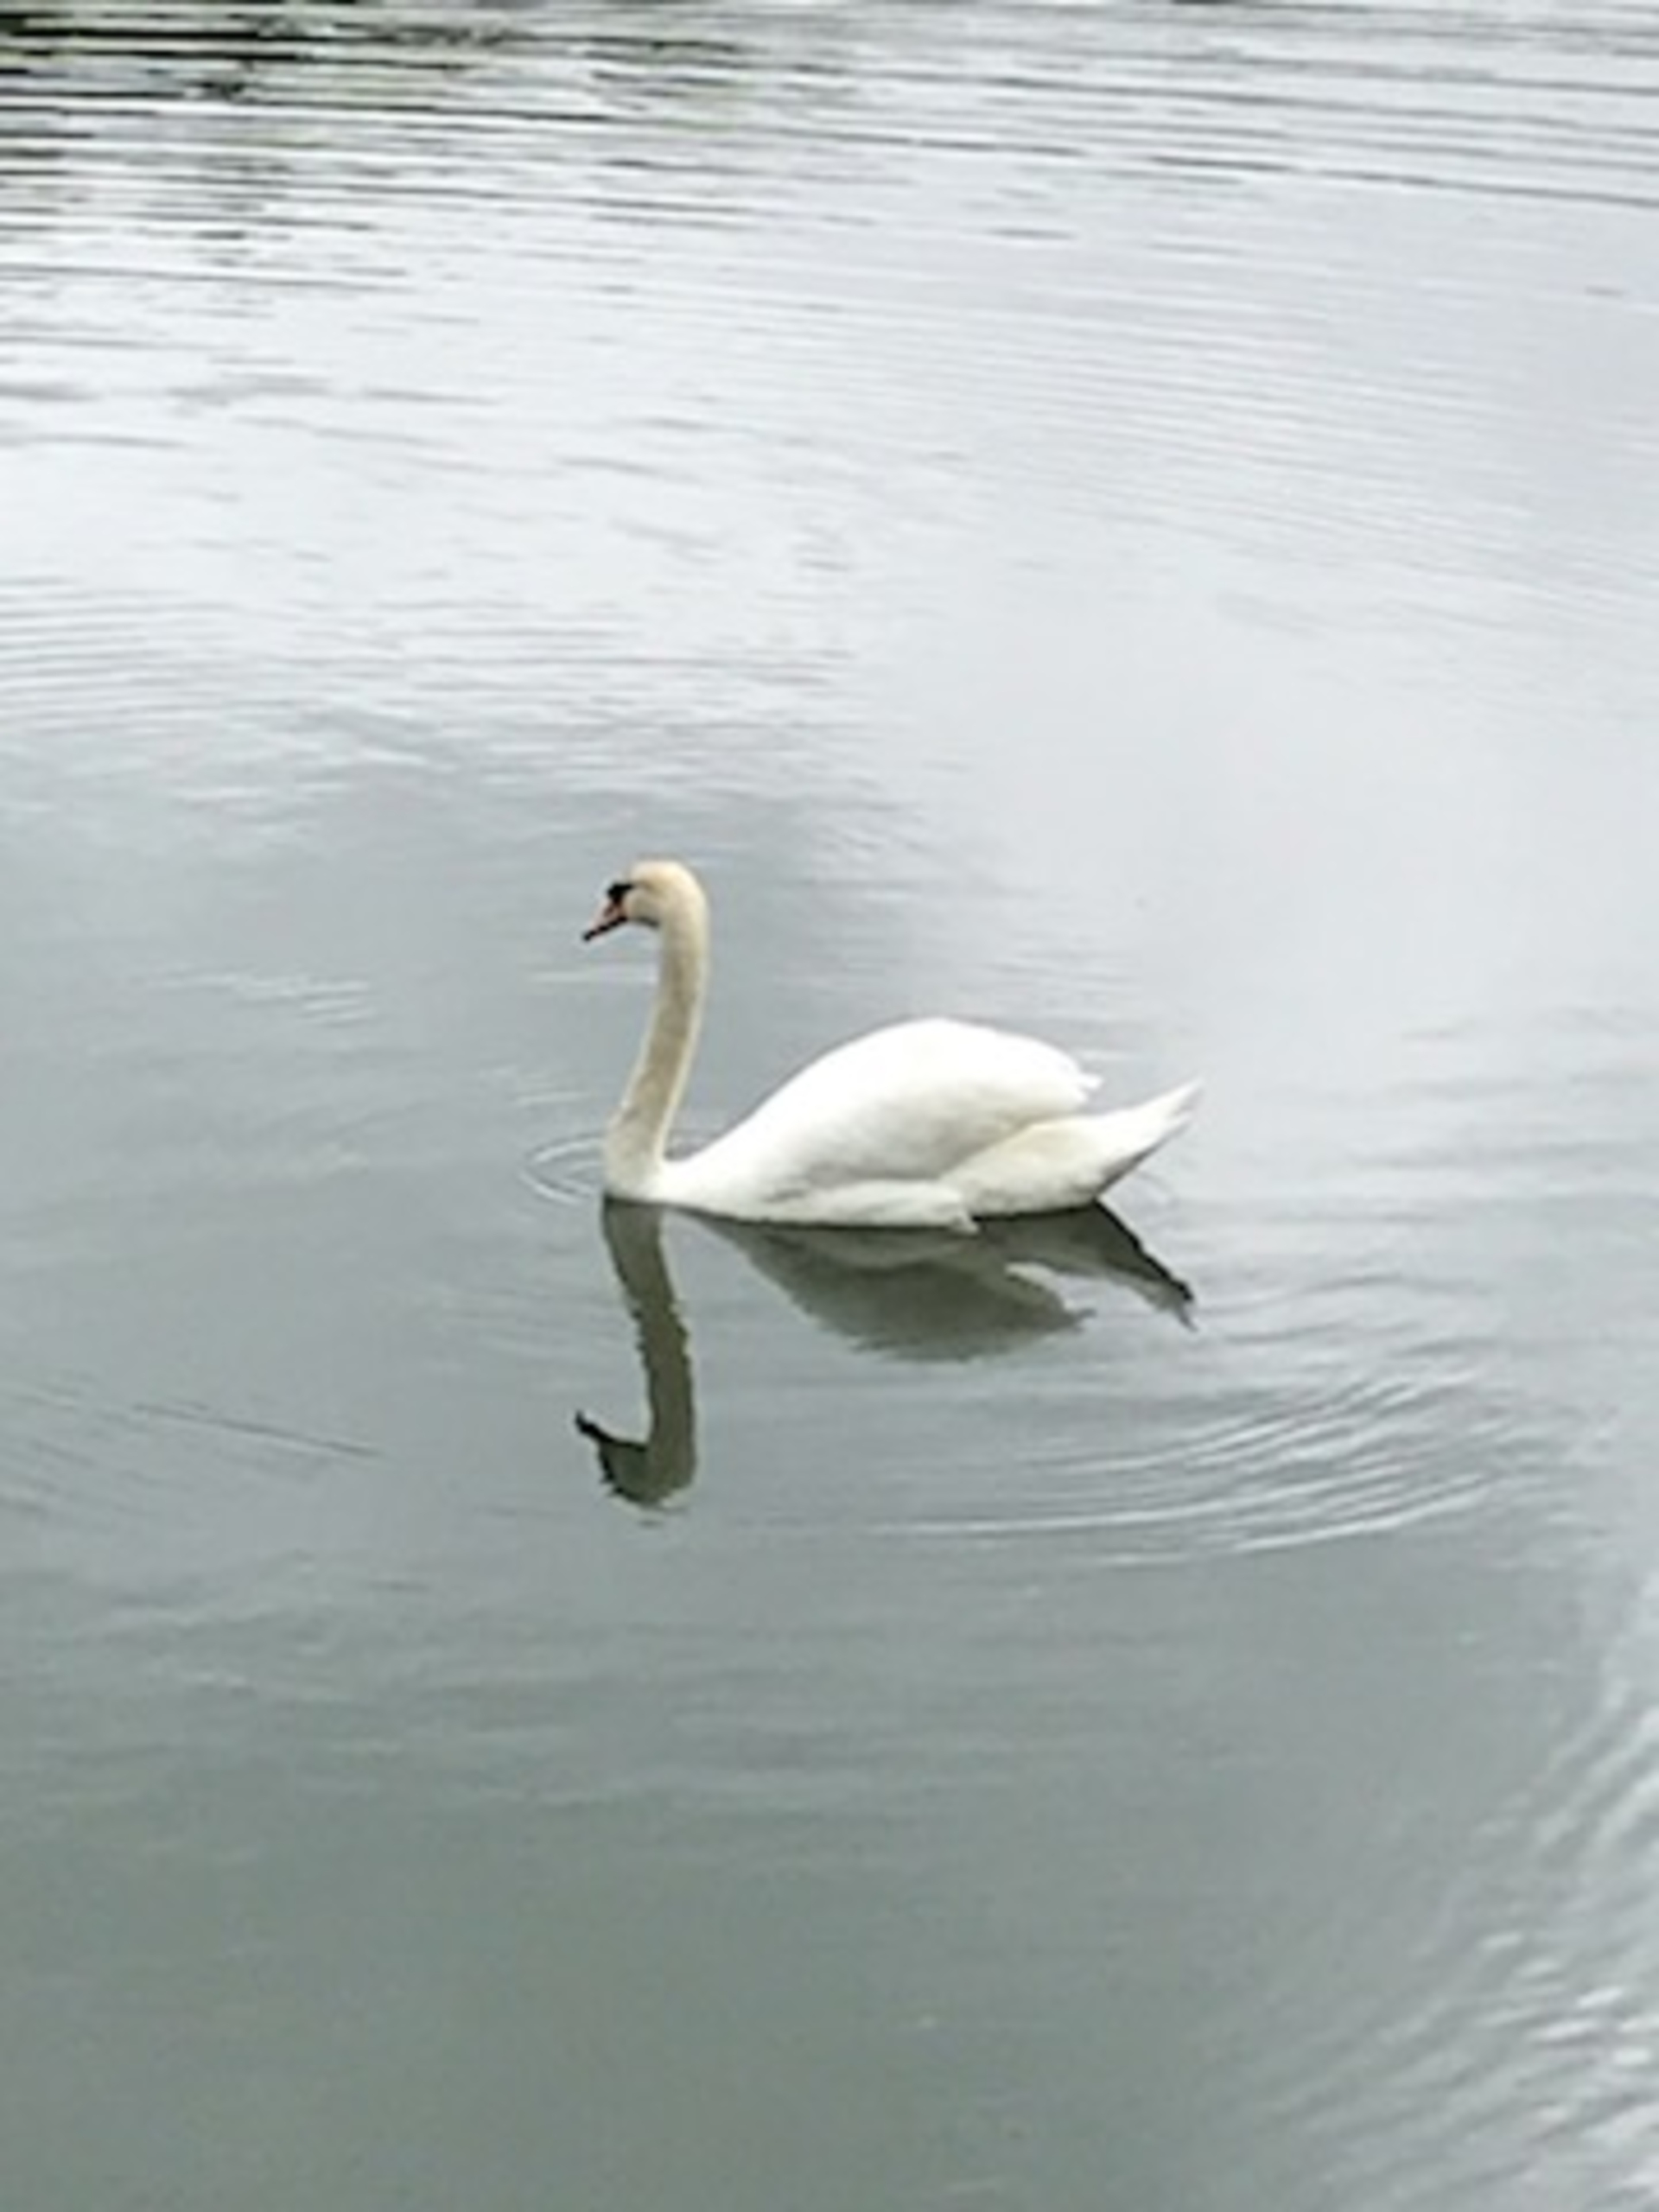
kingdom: Animalia
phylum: Chordata
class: Aves
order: Anseriformes
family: Anatidae
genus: Cygnus
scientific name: Cygnus olor
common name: Knopsvane
